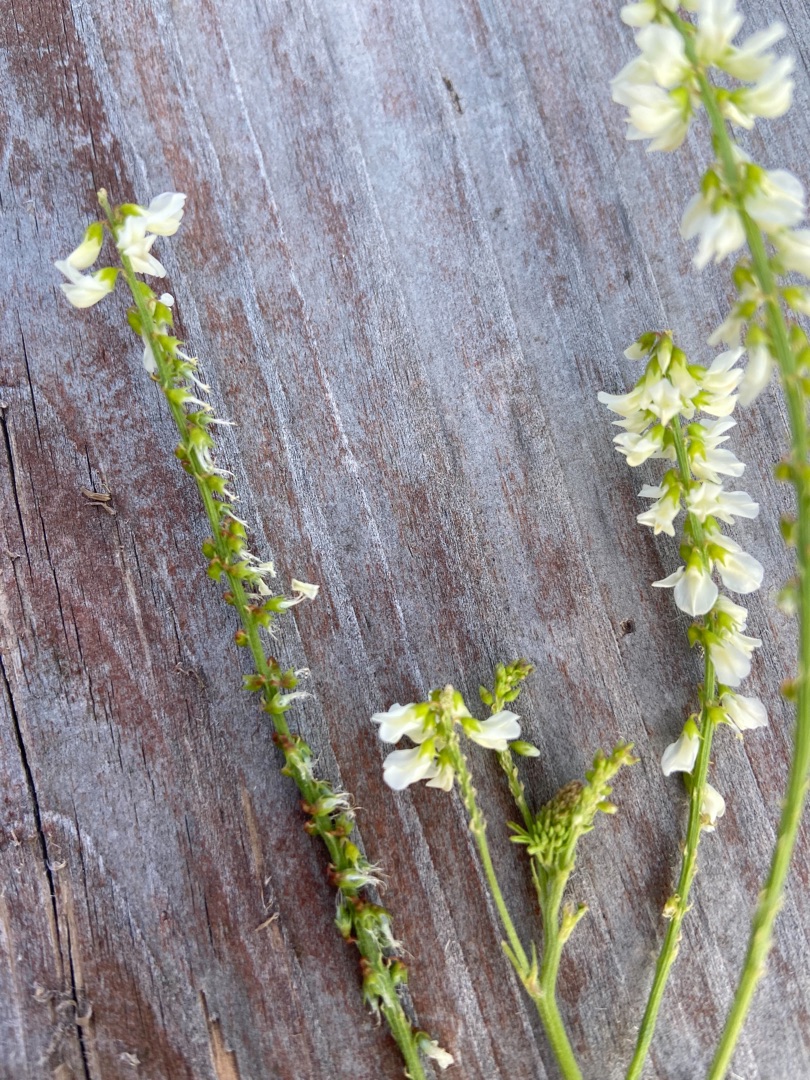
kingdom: Plantae
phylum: Tracheophyta
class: Magnoliopsida
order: Fabales
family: Fabaceae
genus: Melilotus
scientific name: Melilotus albus
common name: Hvid stenkløver
